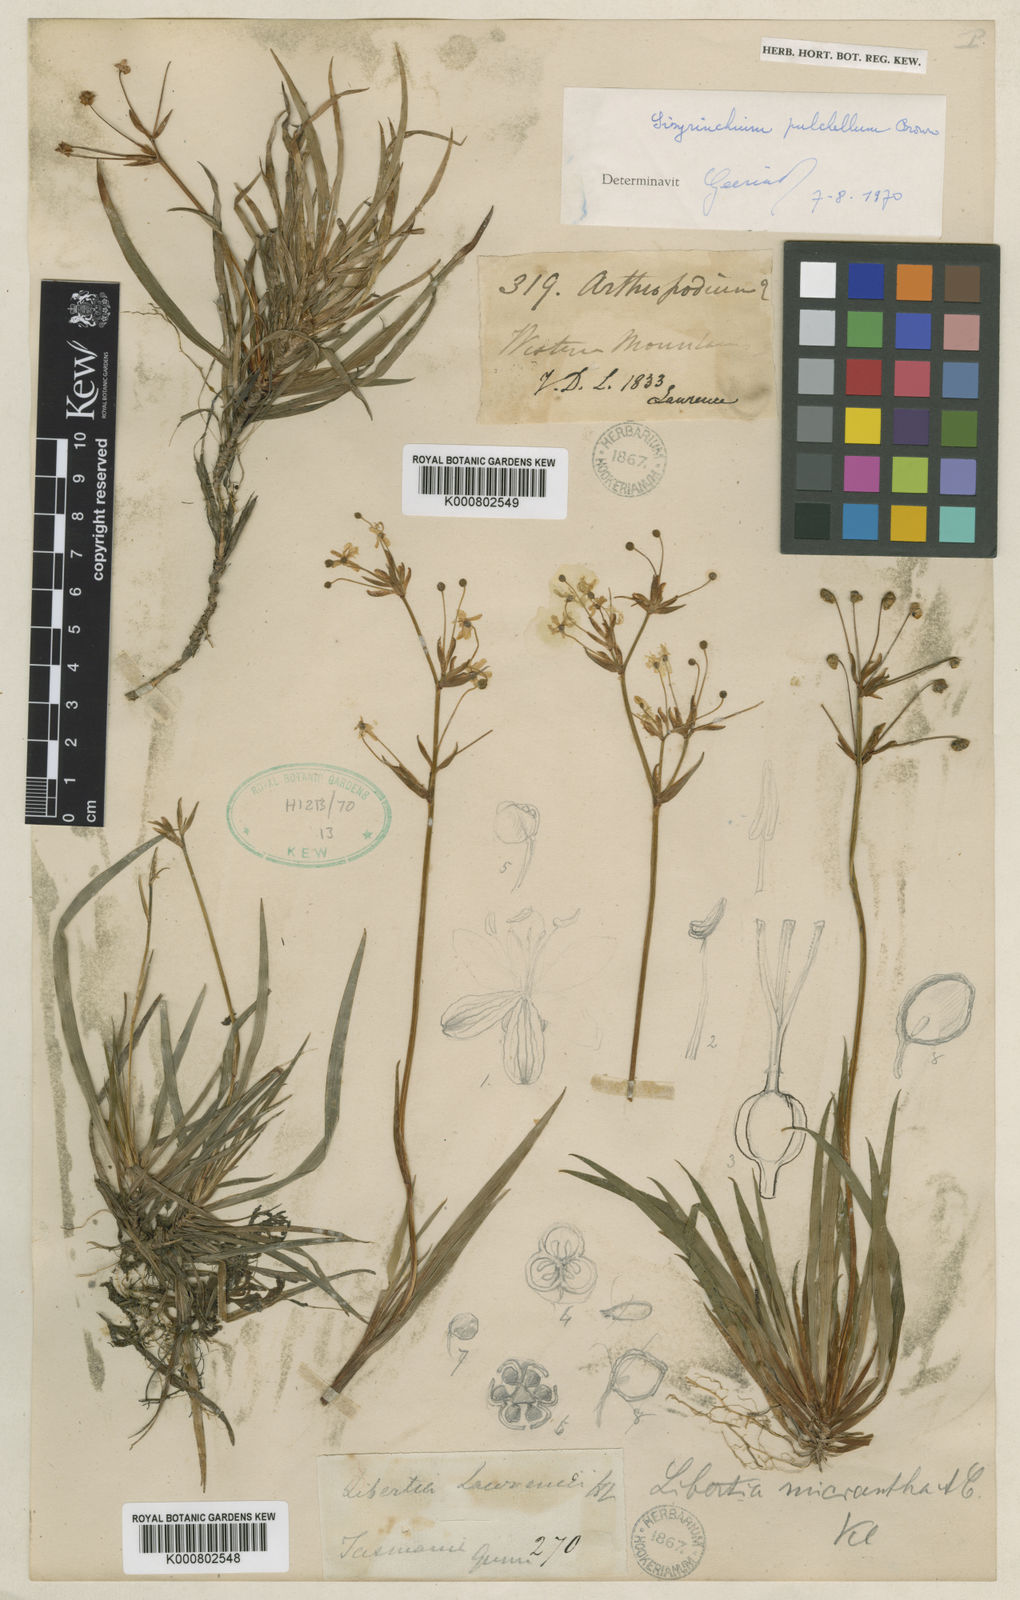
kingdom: Plantae
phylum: Tracheophyta
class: Liliopsida
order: Asparagales
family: Iridaceae
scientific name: Iridaceae
